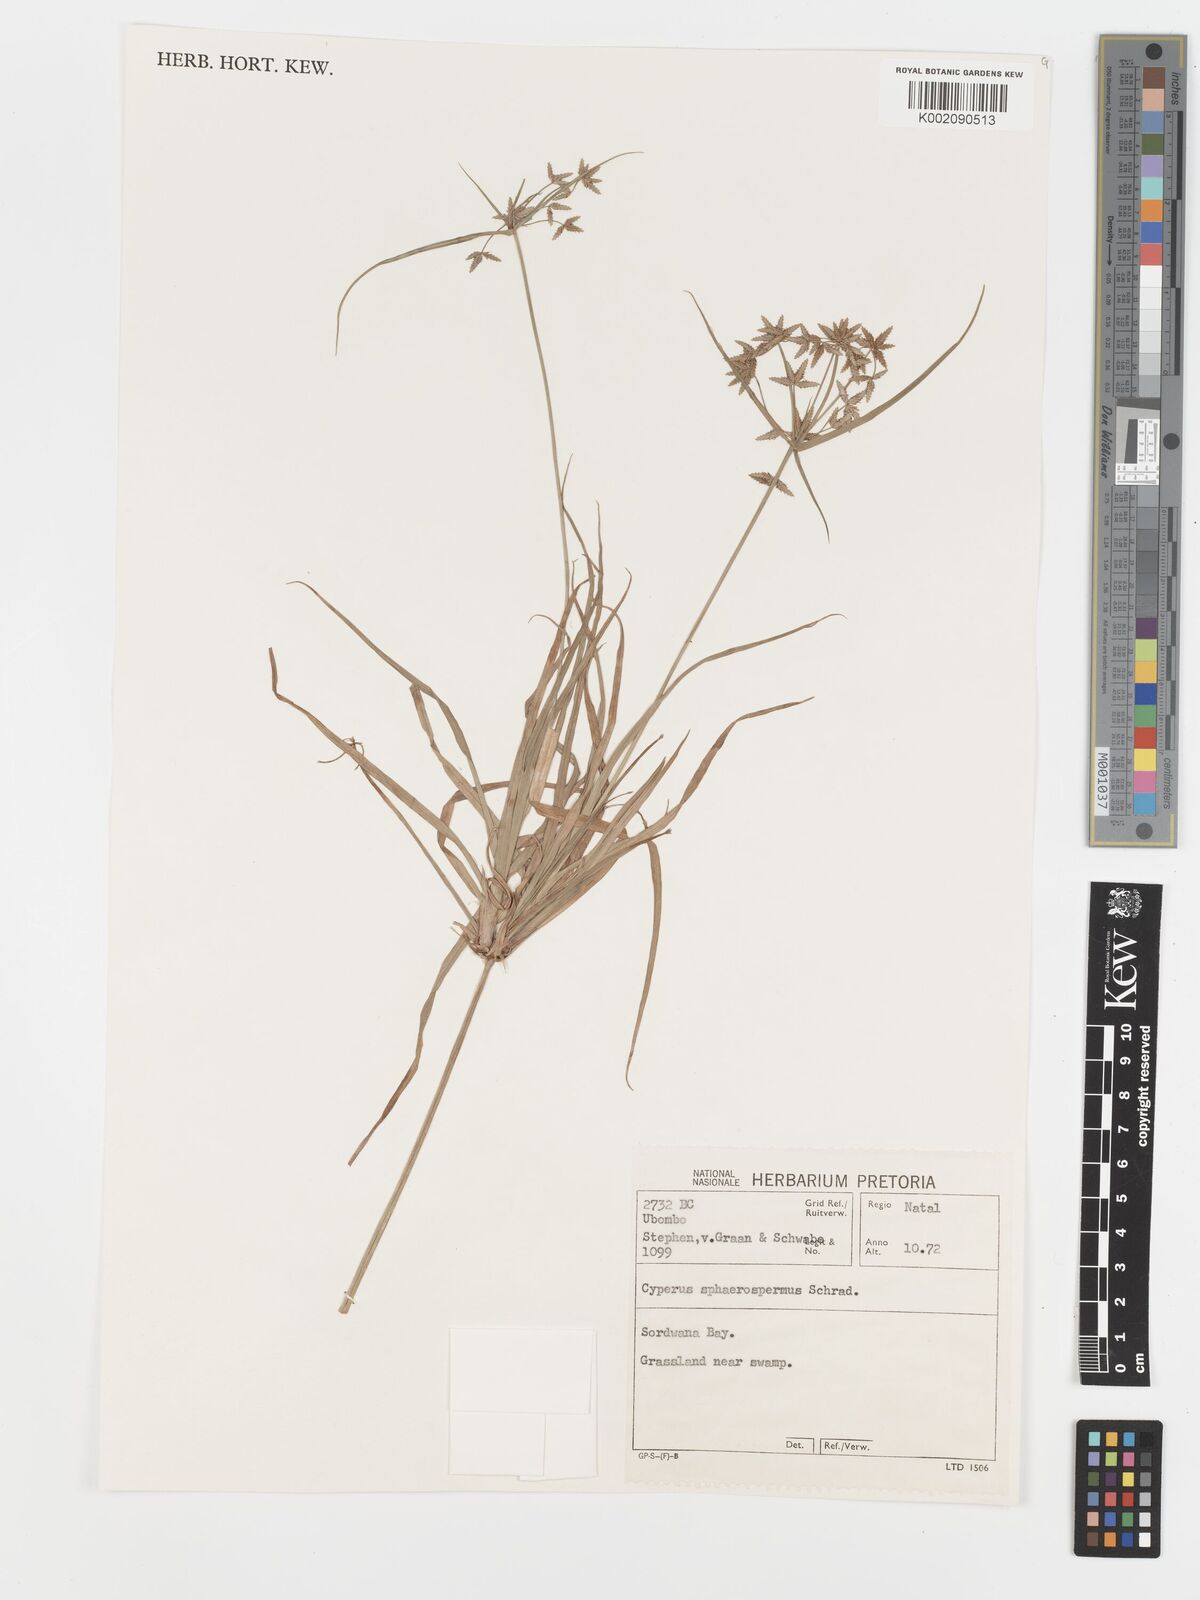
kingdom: Plantae
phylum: Tracheophyta
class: Liliopsida
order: Poales
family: Cyperaceae
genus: Cyperus
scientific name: Cyperus sphaerospermus
